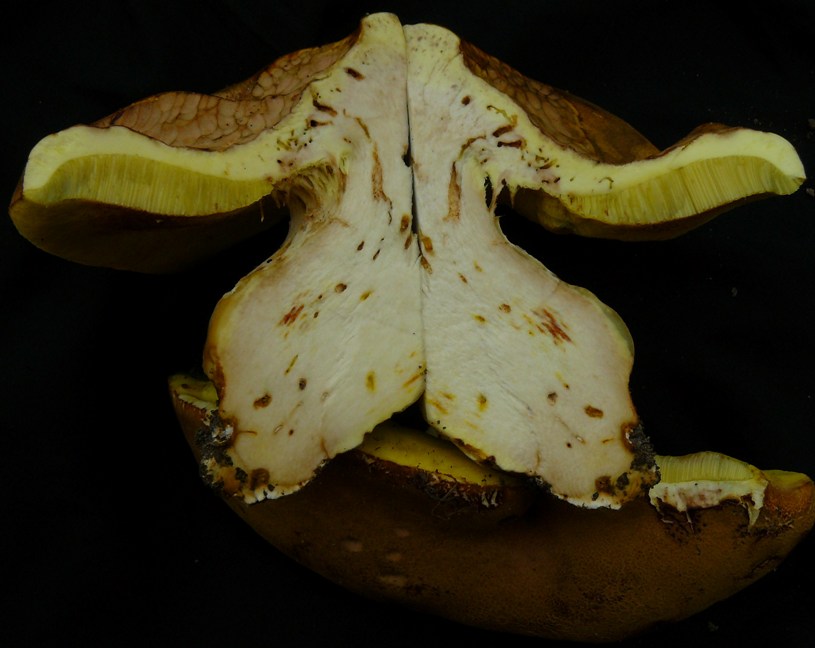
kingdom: Fungi
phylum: Basidiomycota
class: Agaricomycetes
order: Boletales
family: Boletaceae
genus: Butyriboletus
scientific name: Butyriboletus appendiculatus
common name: tenstokket rørhat
